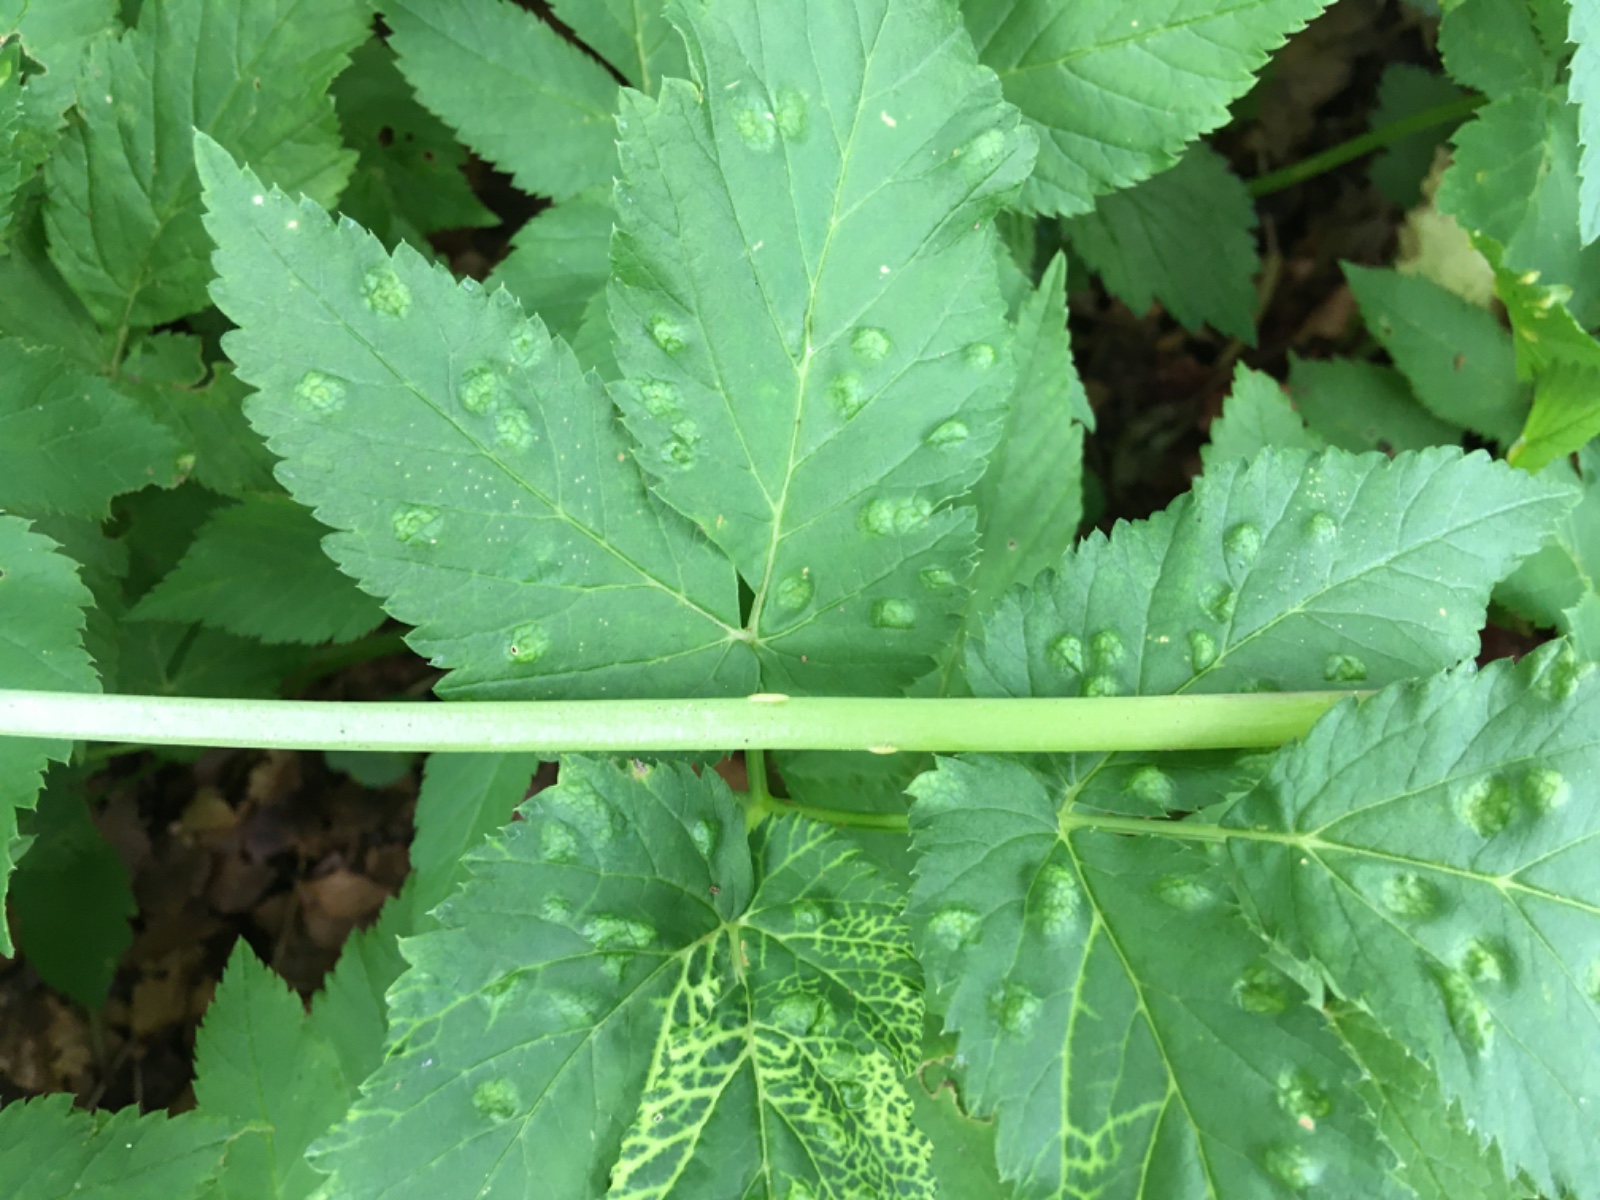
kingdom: Fungi
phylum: Ascomycota
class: Taphrinomycetes
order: Taphrinales
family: Taphrinaceae
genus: Protomyces
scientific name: Protomyces macrosporus
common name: skvalderkål-vablesæk
